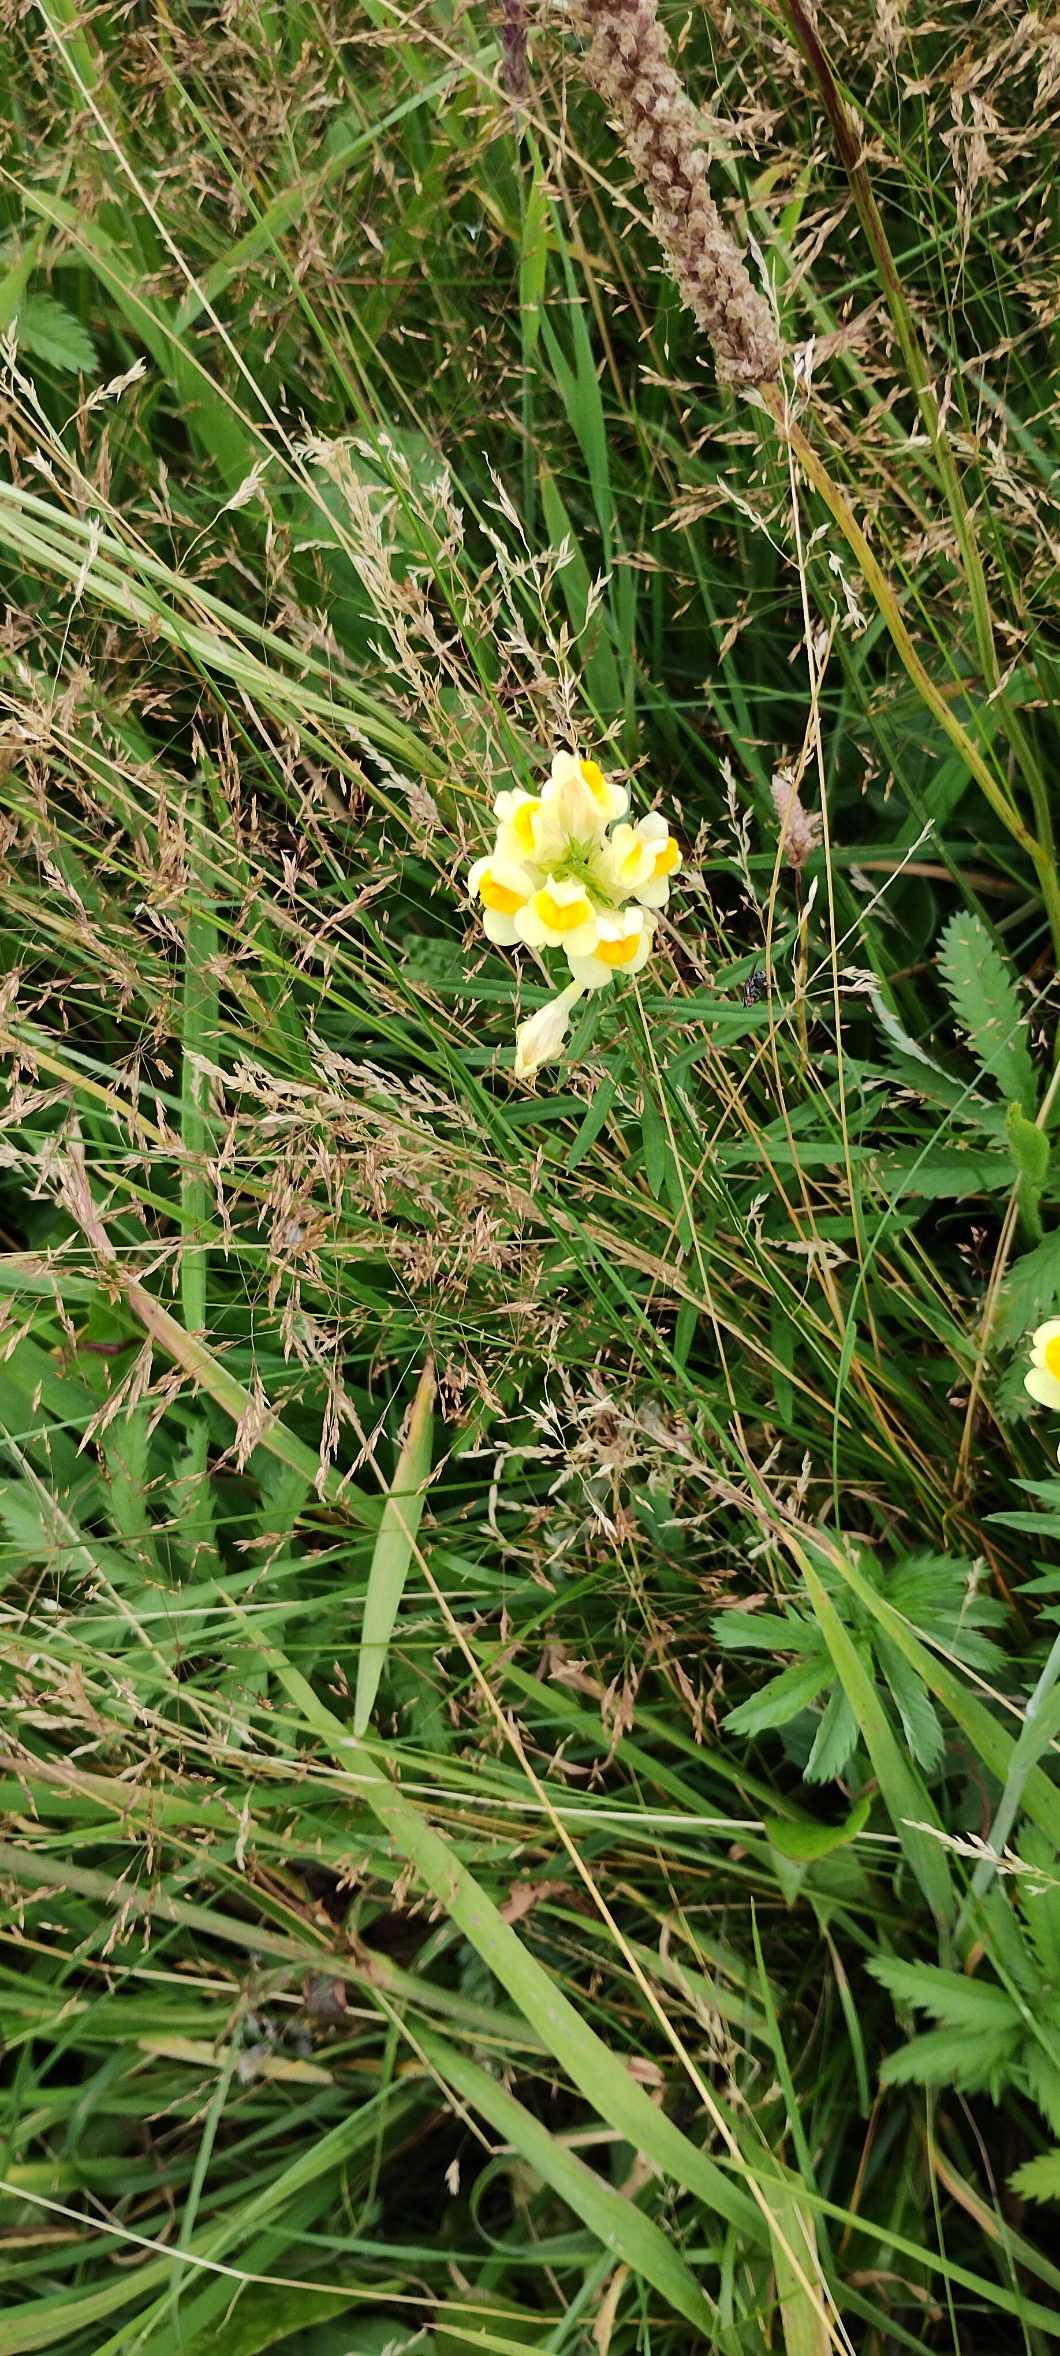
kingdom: Plantae
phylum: Tracheophyta
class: Magnoliopsida
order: Lamiales
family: Plantaginaceae
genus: Linaria
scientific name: Linaria vulgaris
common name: Almindelig torskemund
